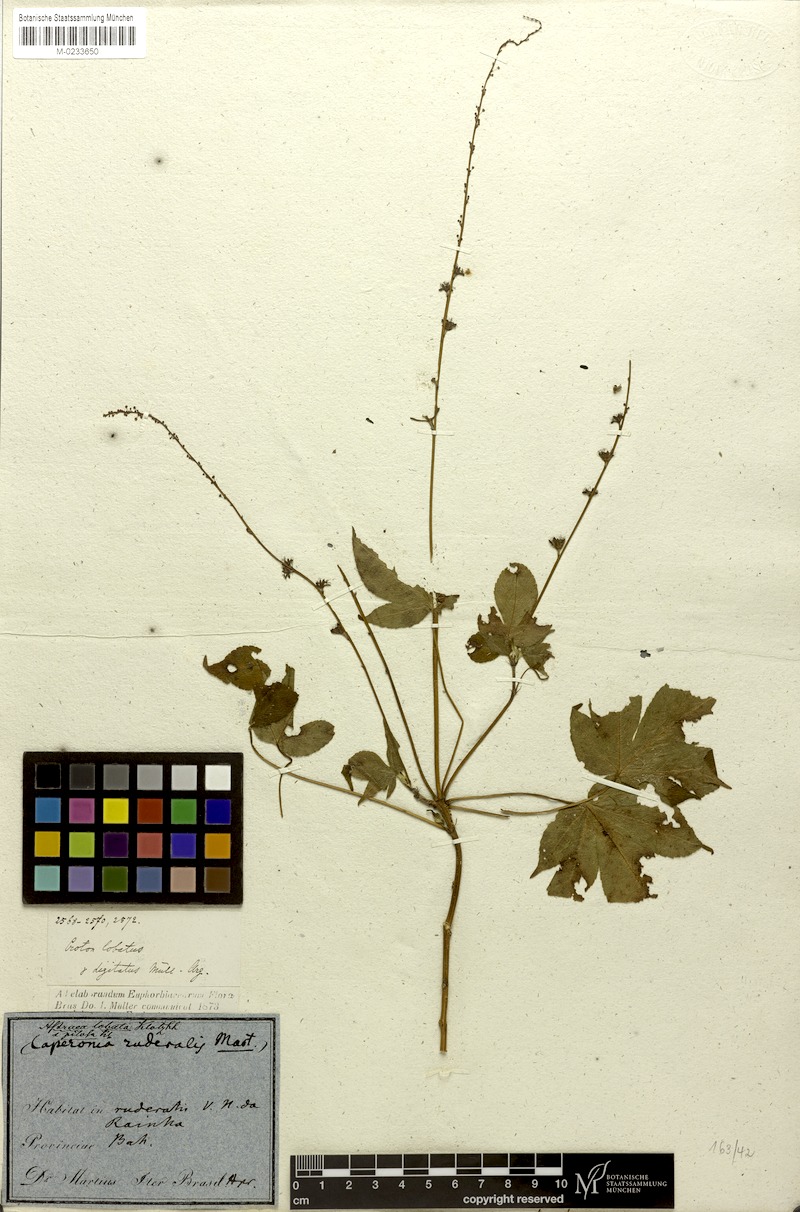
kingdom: Plantae
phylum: Tracheophyta
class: Magnoliopsida
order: Malpighiales
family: Euphorbiaceae
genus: Astraea
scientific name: Astraea lobata
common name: Lobed croton
